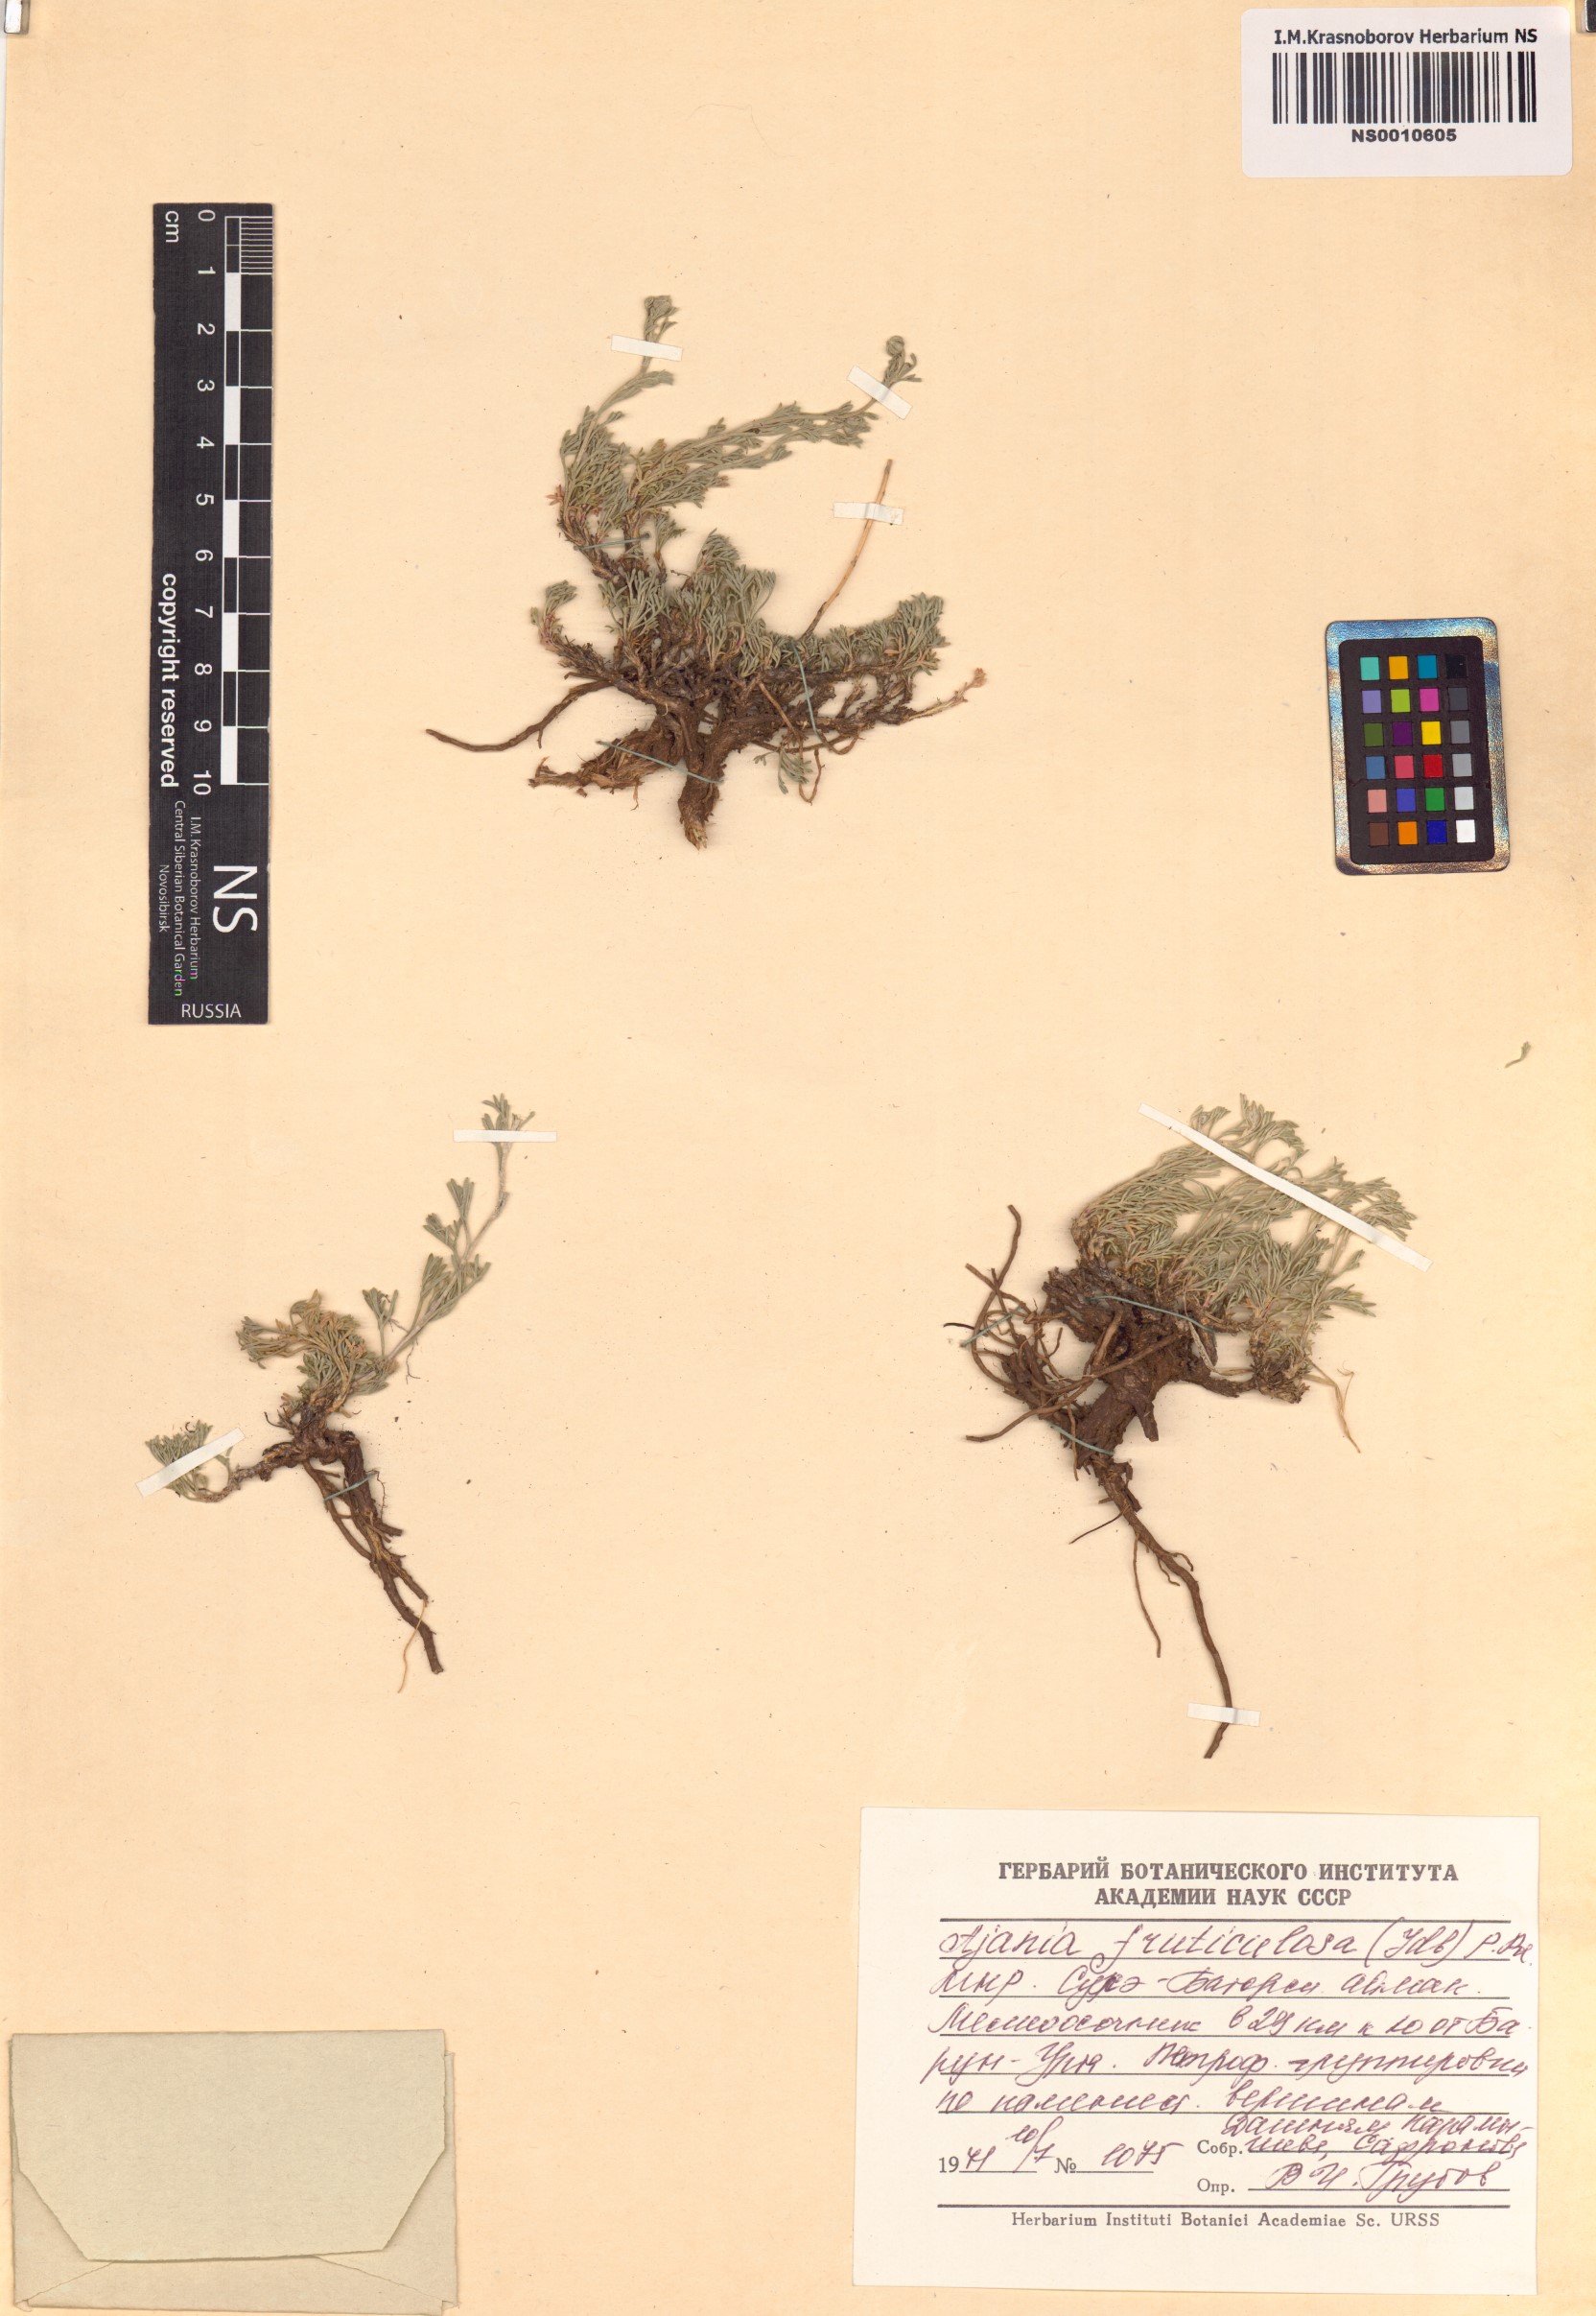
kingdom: Plantae
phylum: Tracheophyta
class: Magnoliopsida
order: Asterales
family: Asteraceae
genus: Ajania
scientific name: Ajania fruticulosa
